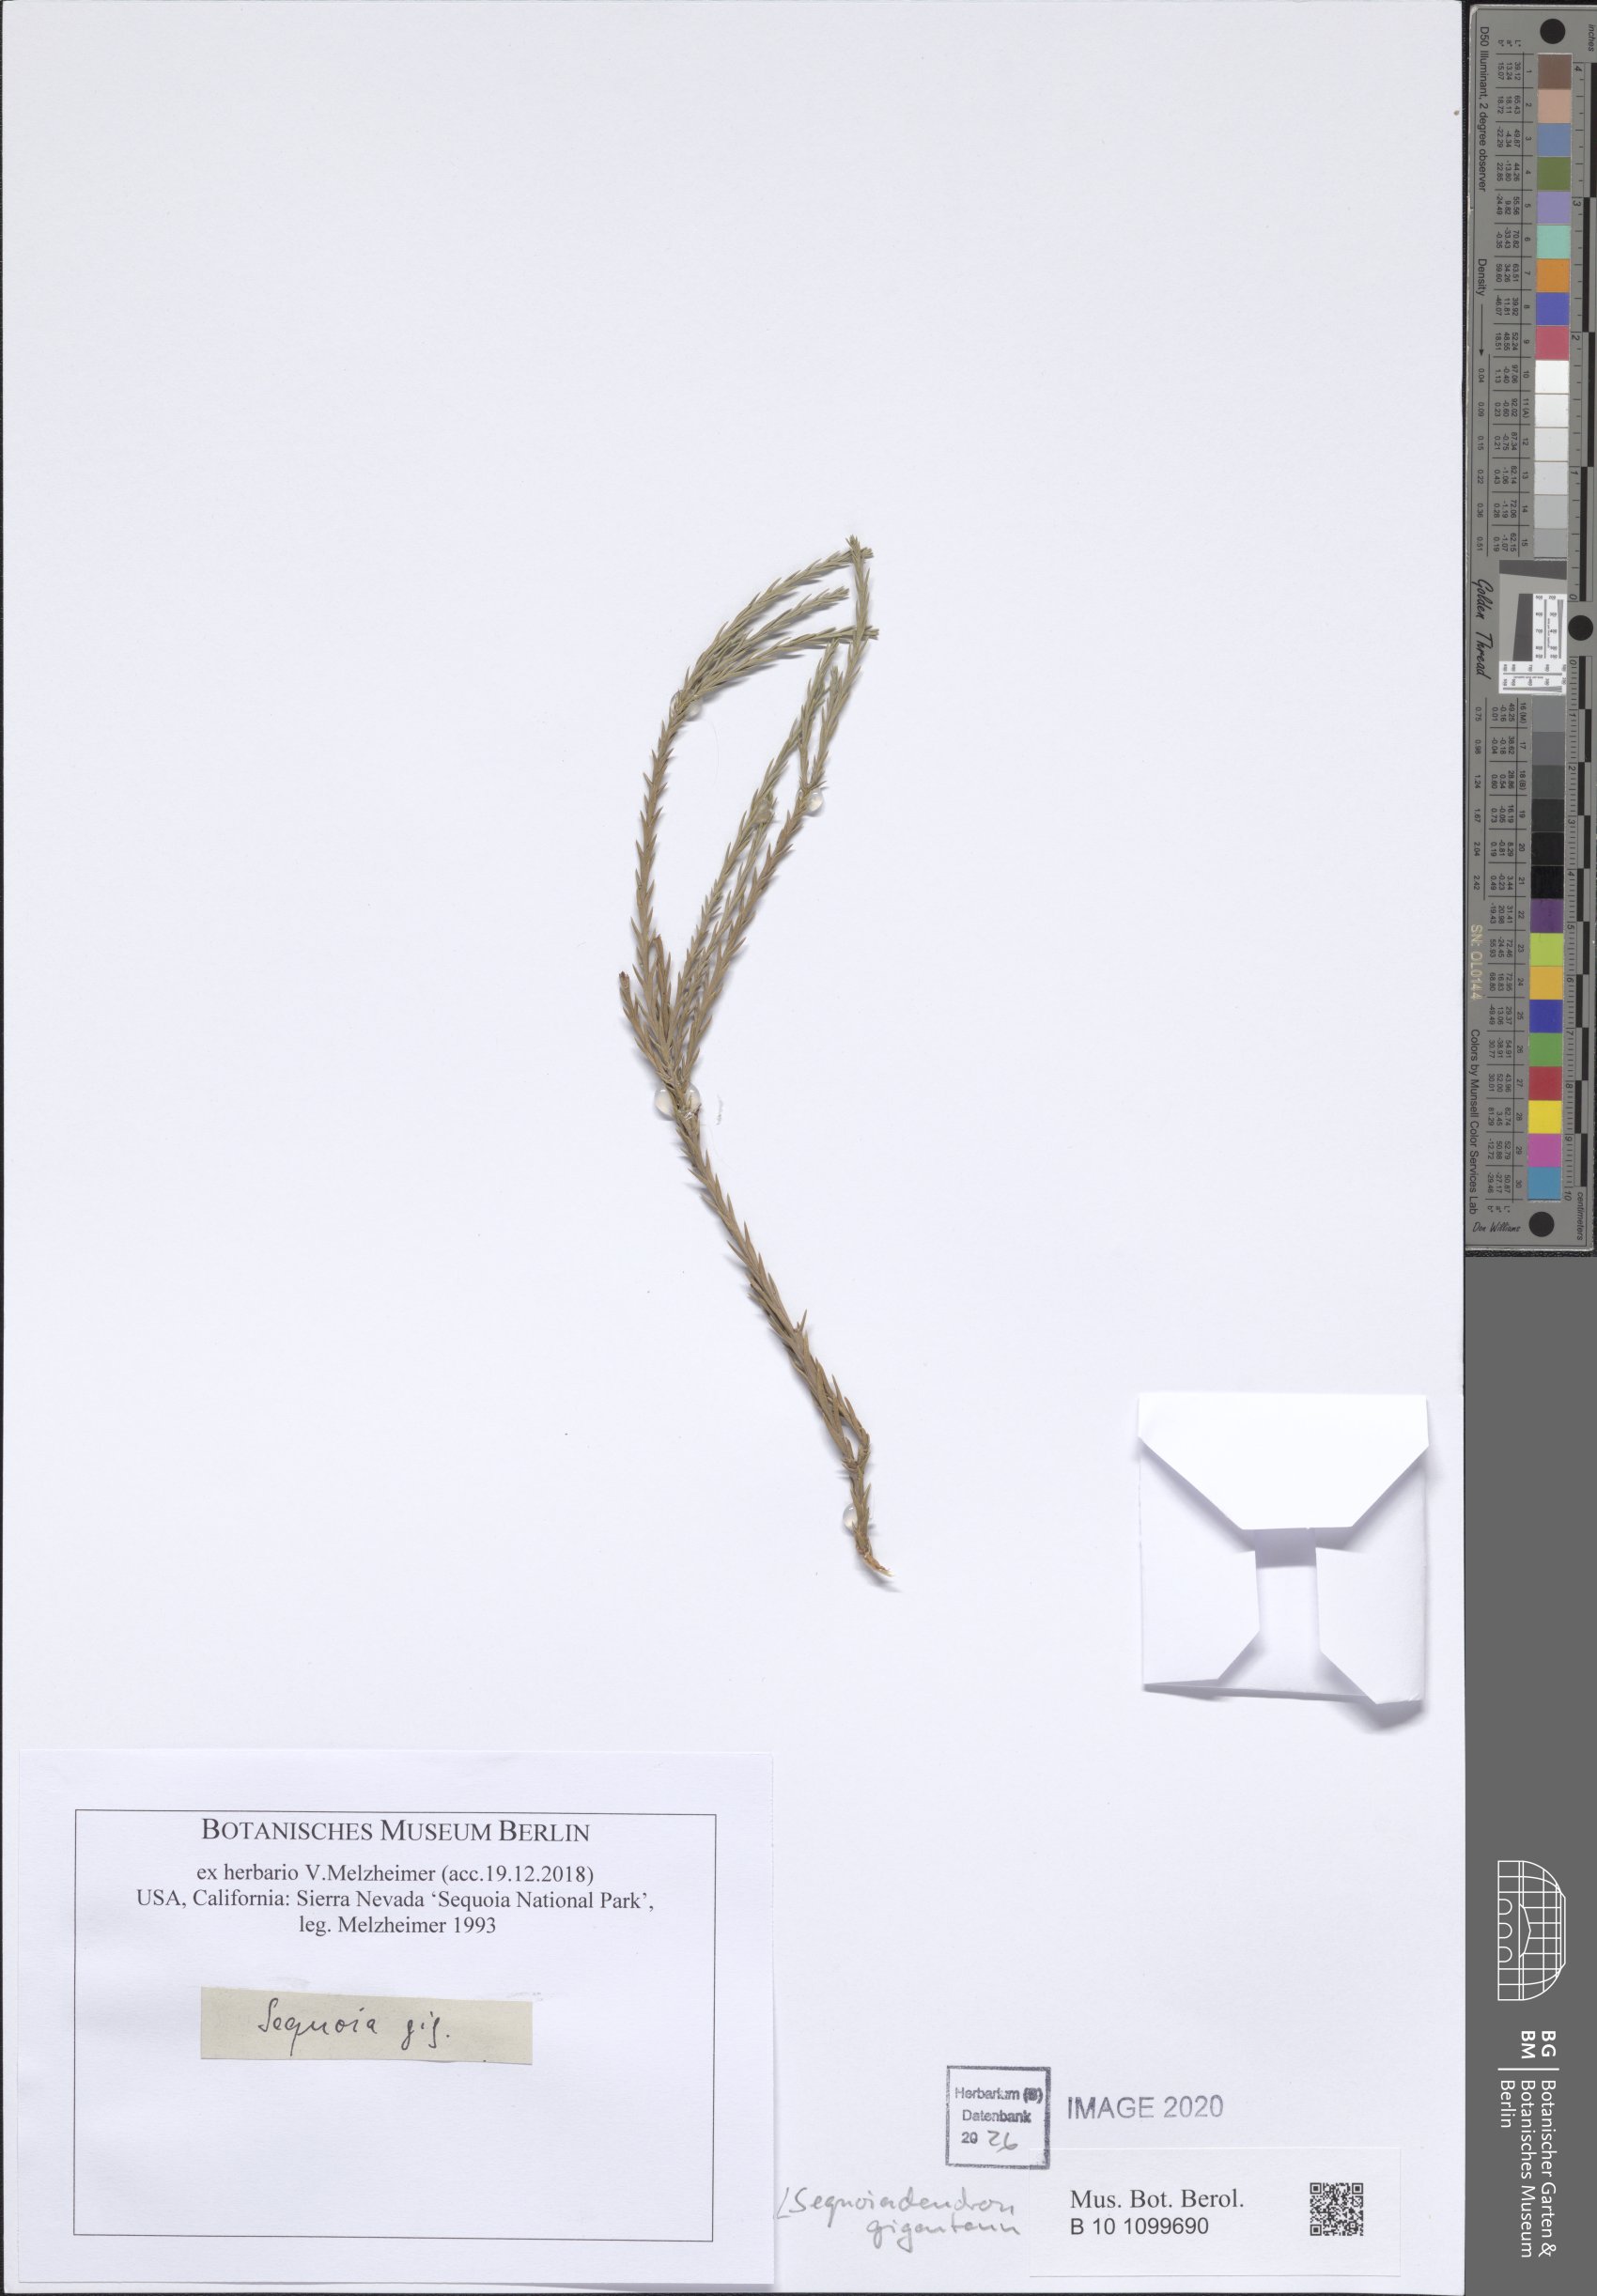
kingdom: Plantae
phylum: Tracheophyta
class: Pinopsida
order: Pinales
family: Cupressaceae
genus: Sequoiadendron
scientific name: Sequoiadendron giganteum
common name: Wellingtonia
